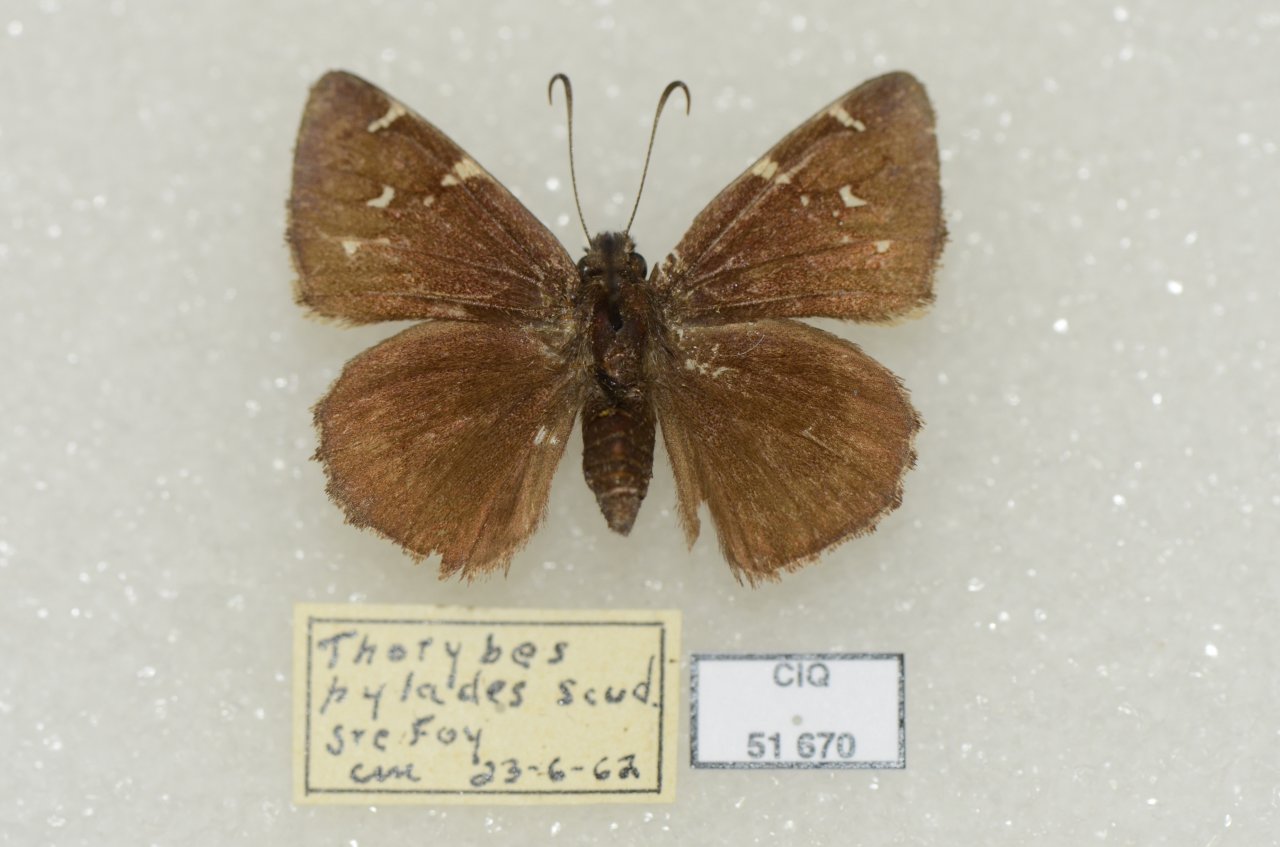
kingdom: Animalia
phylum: Arthropoda
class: Insecta
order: Lepidoptera
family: Hesperiidae
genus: Autochton
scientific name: Autochton
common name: Northern Cloudywing
